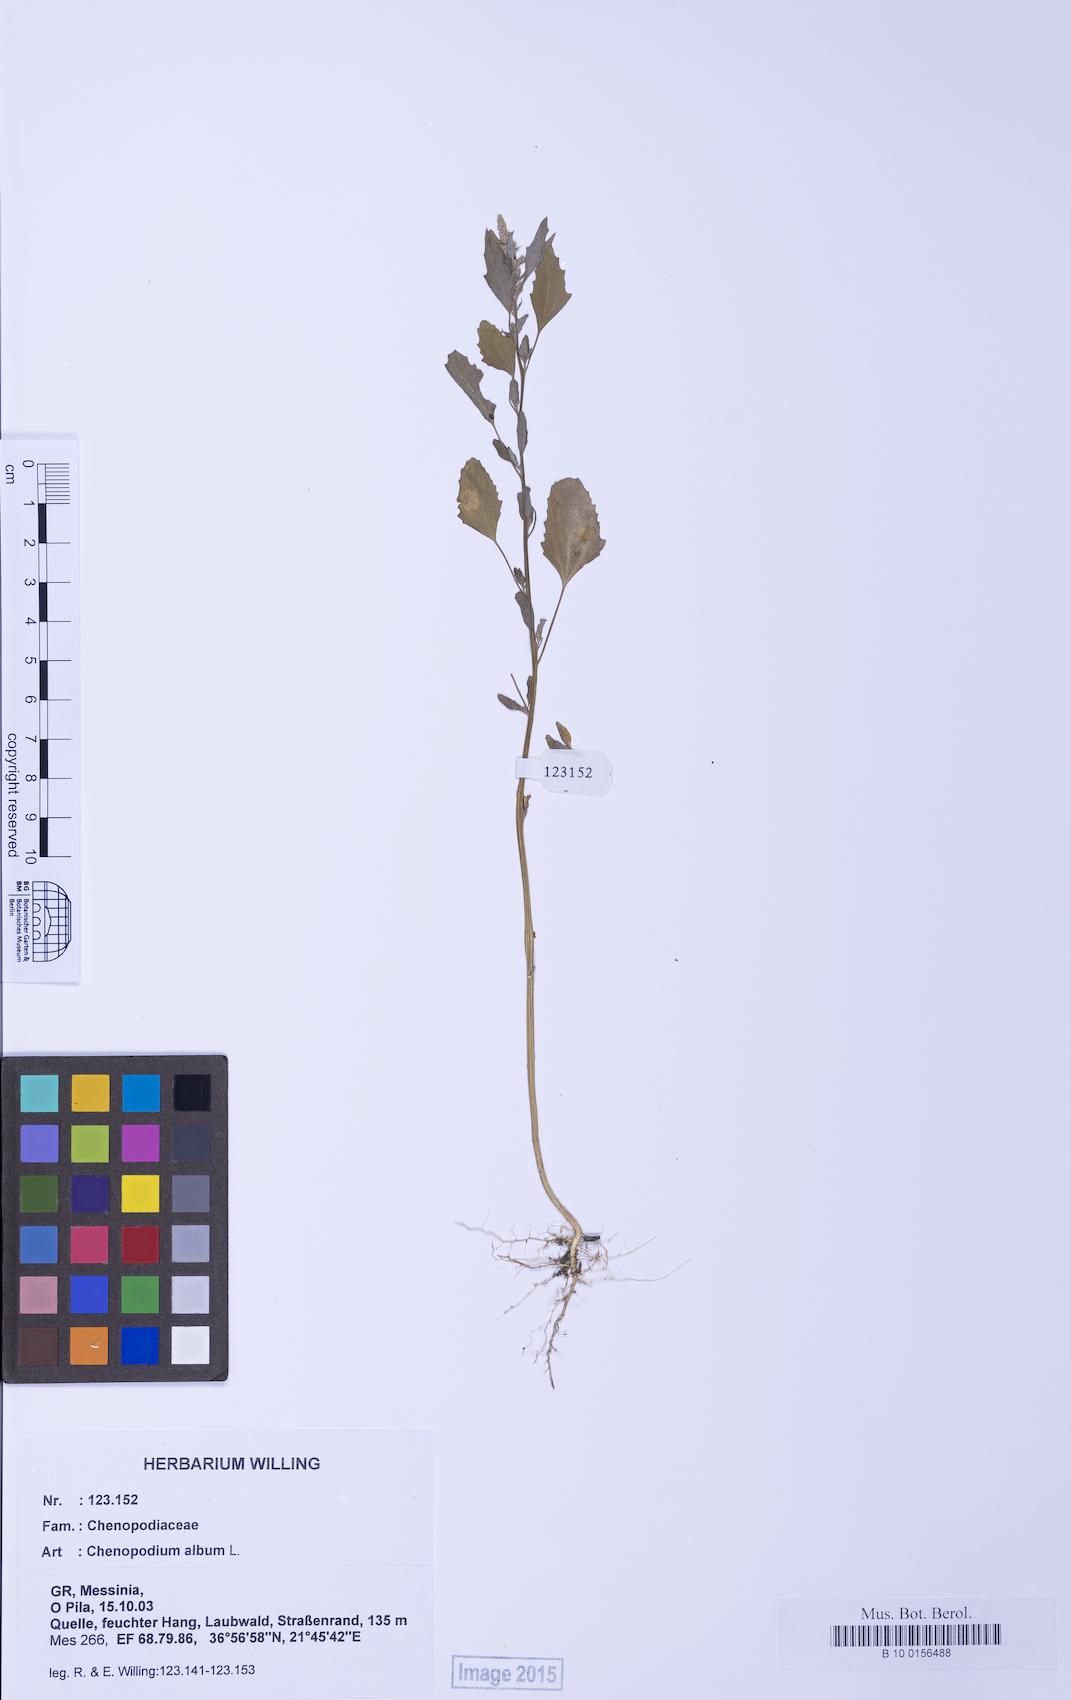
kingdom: Plantae
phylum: Tracheophyta
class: Magnoliopsida
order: Caryophyllales
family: Amaranthaceae
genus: Chenopodium
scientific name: Chenopodium album
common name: Fat-hen
